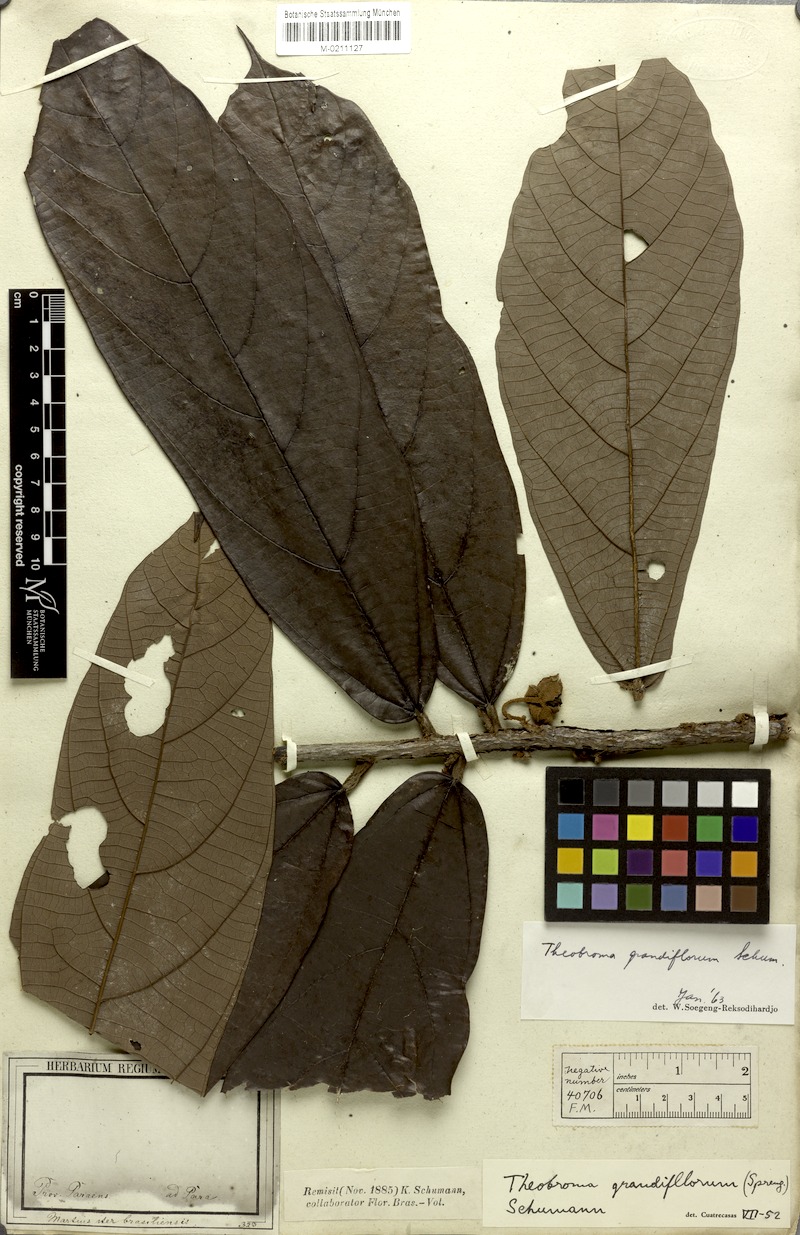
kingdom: Plantae
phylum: Tracheophyta
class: Magnoliopsida
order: Malvales
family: Malvaceae
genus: Theobroma
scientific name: Theobroma grandiflorum
